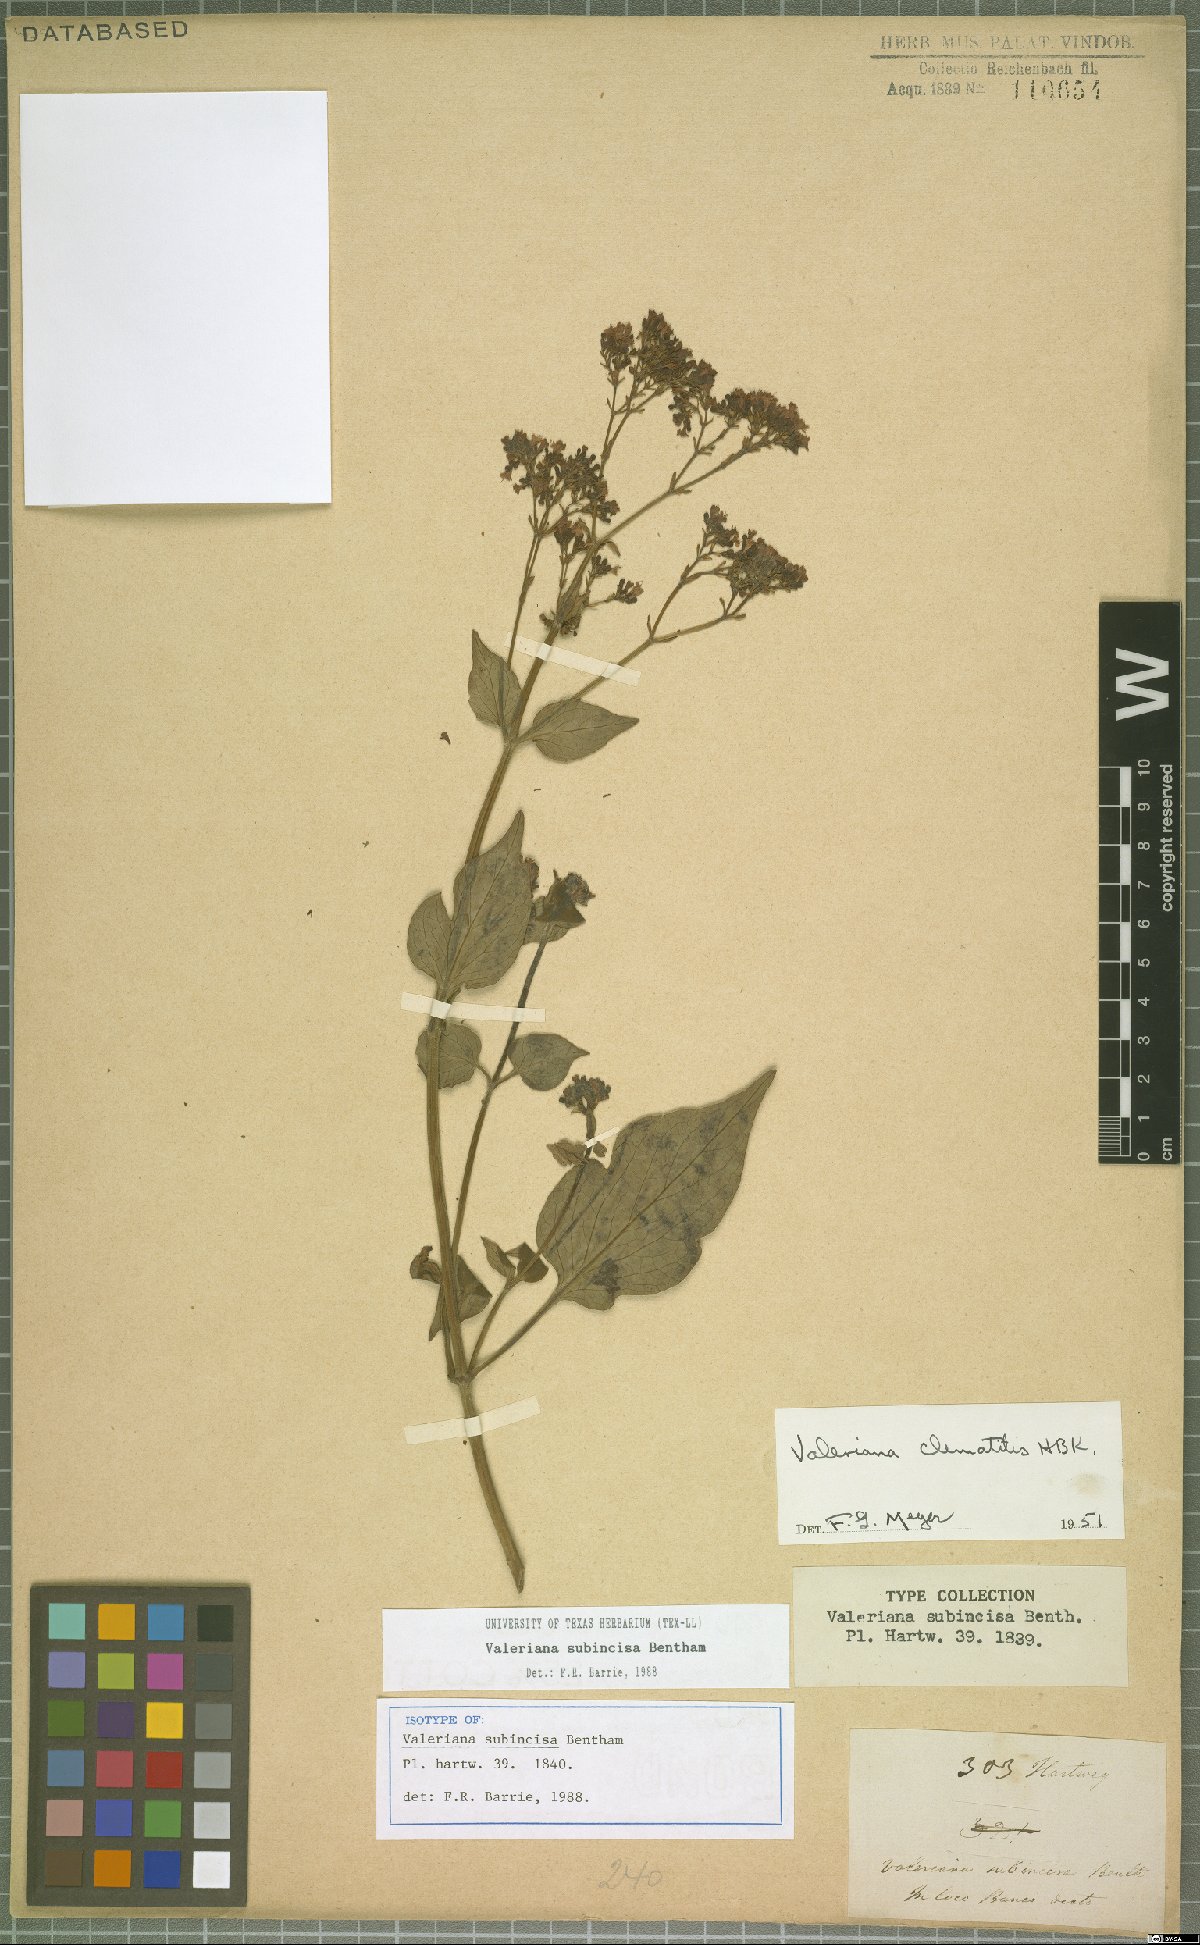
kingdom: Plantae
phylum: Tracheophyta
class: Magnoliopsida
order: Dipsacales
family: Caprifoliaceae
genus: Valeriana
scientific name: Valeriana clematitis
